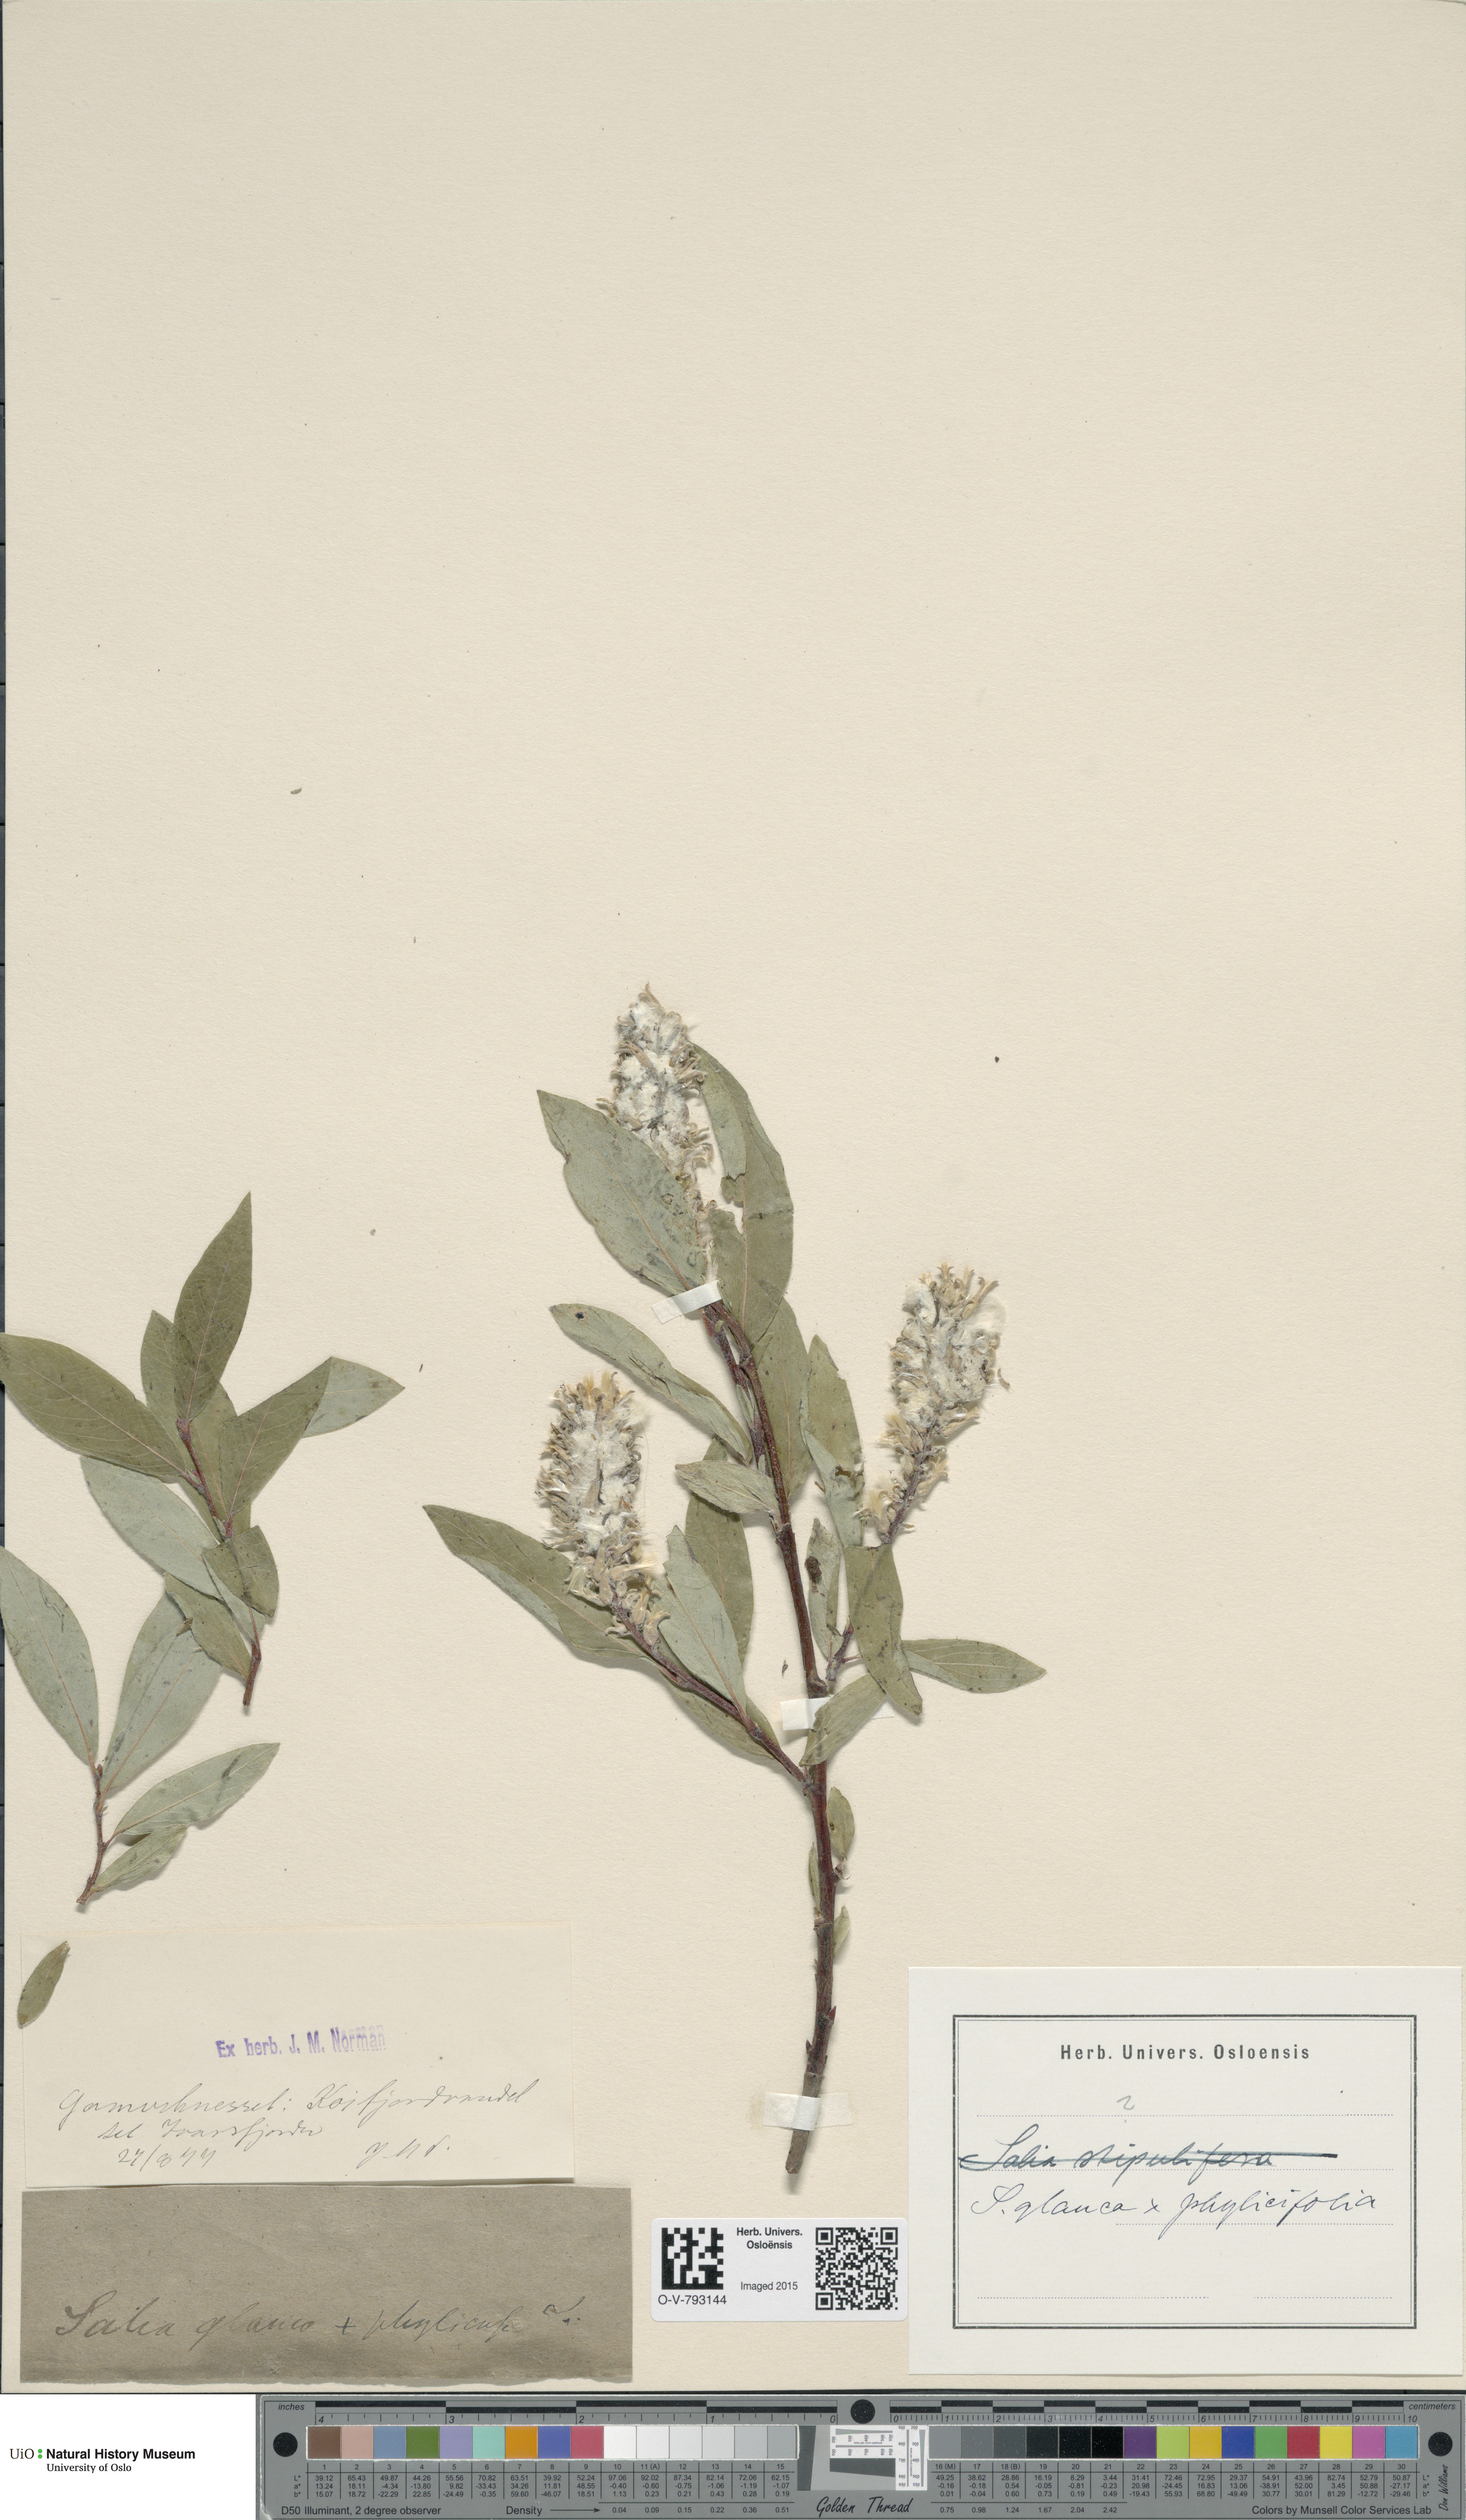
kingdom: Plantae
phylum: Tracheophyta
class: Magnoliopsida
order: Malpighiales
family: Salicaceae
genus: Salix
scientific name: Salix
